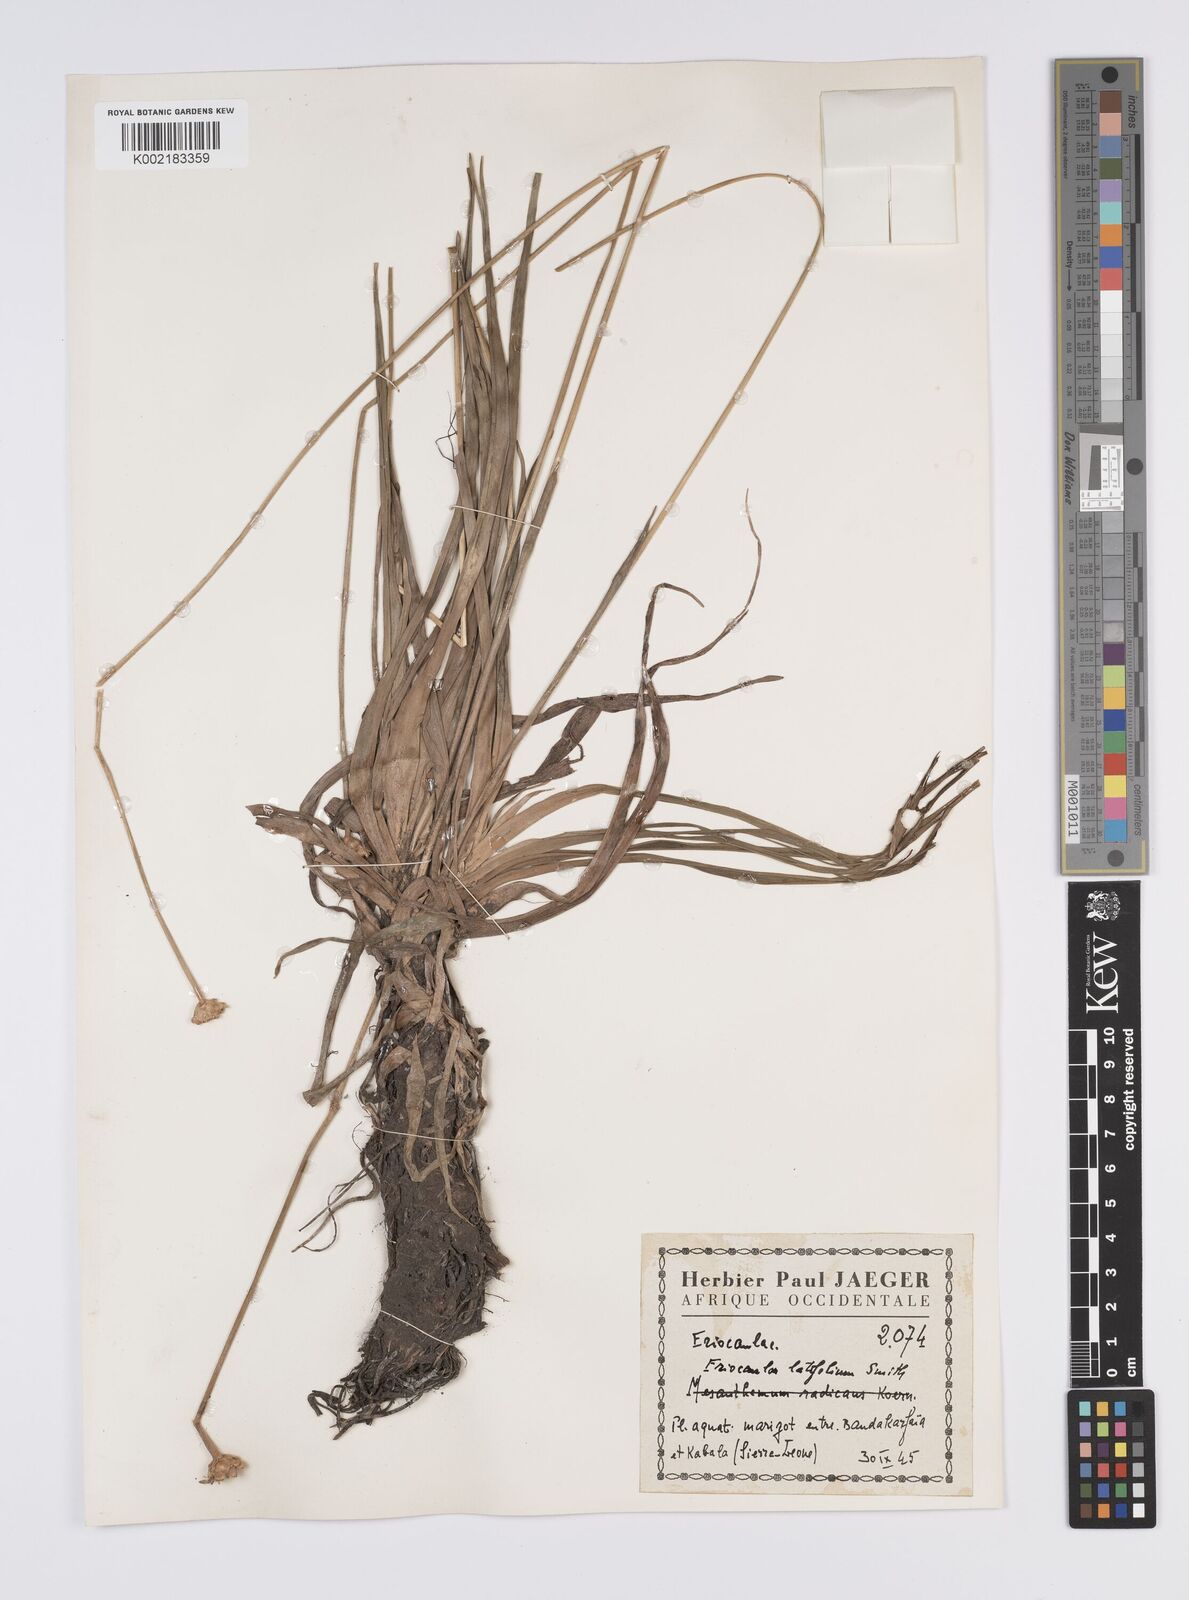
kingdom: Plantae
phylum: Tracheophyta
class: Liliopsida
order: Poales
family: Eriocaulaceae
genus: Eriocaulon
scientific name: Eriocaulon latifolium
